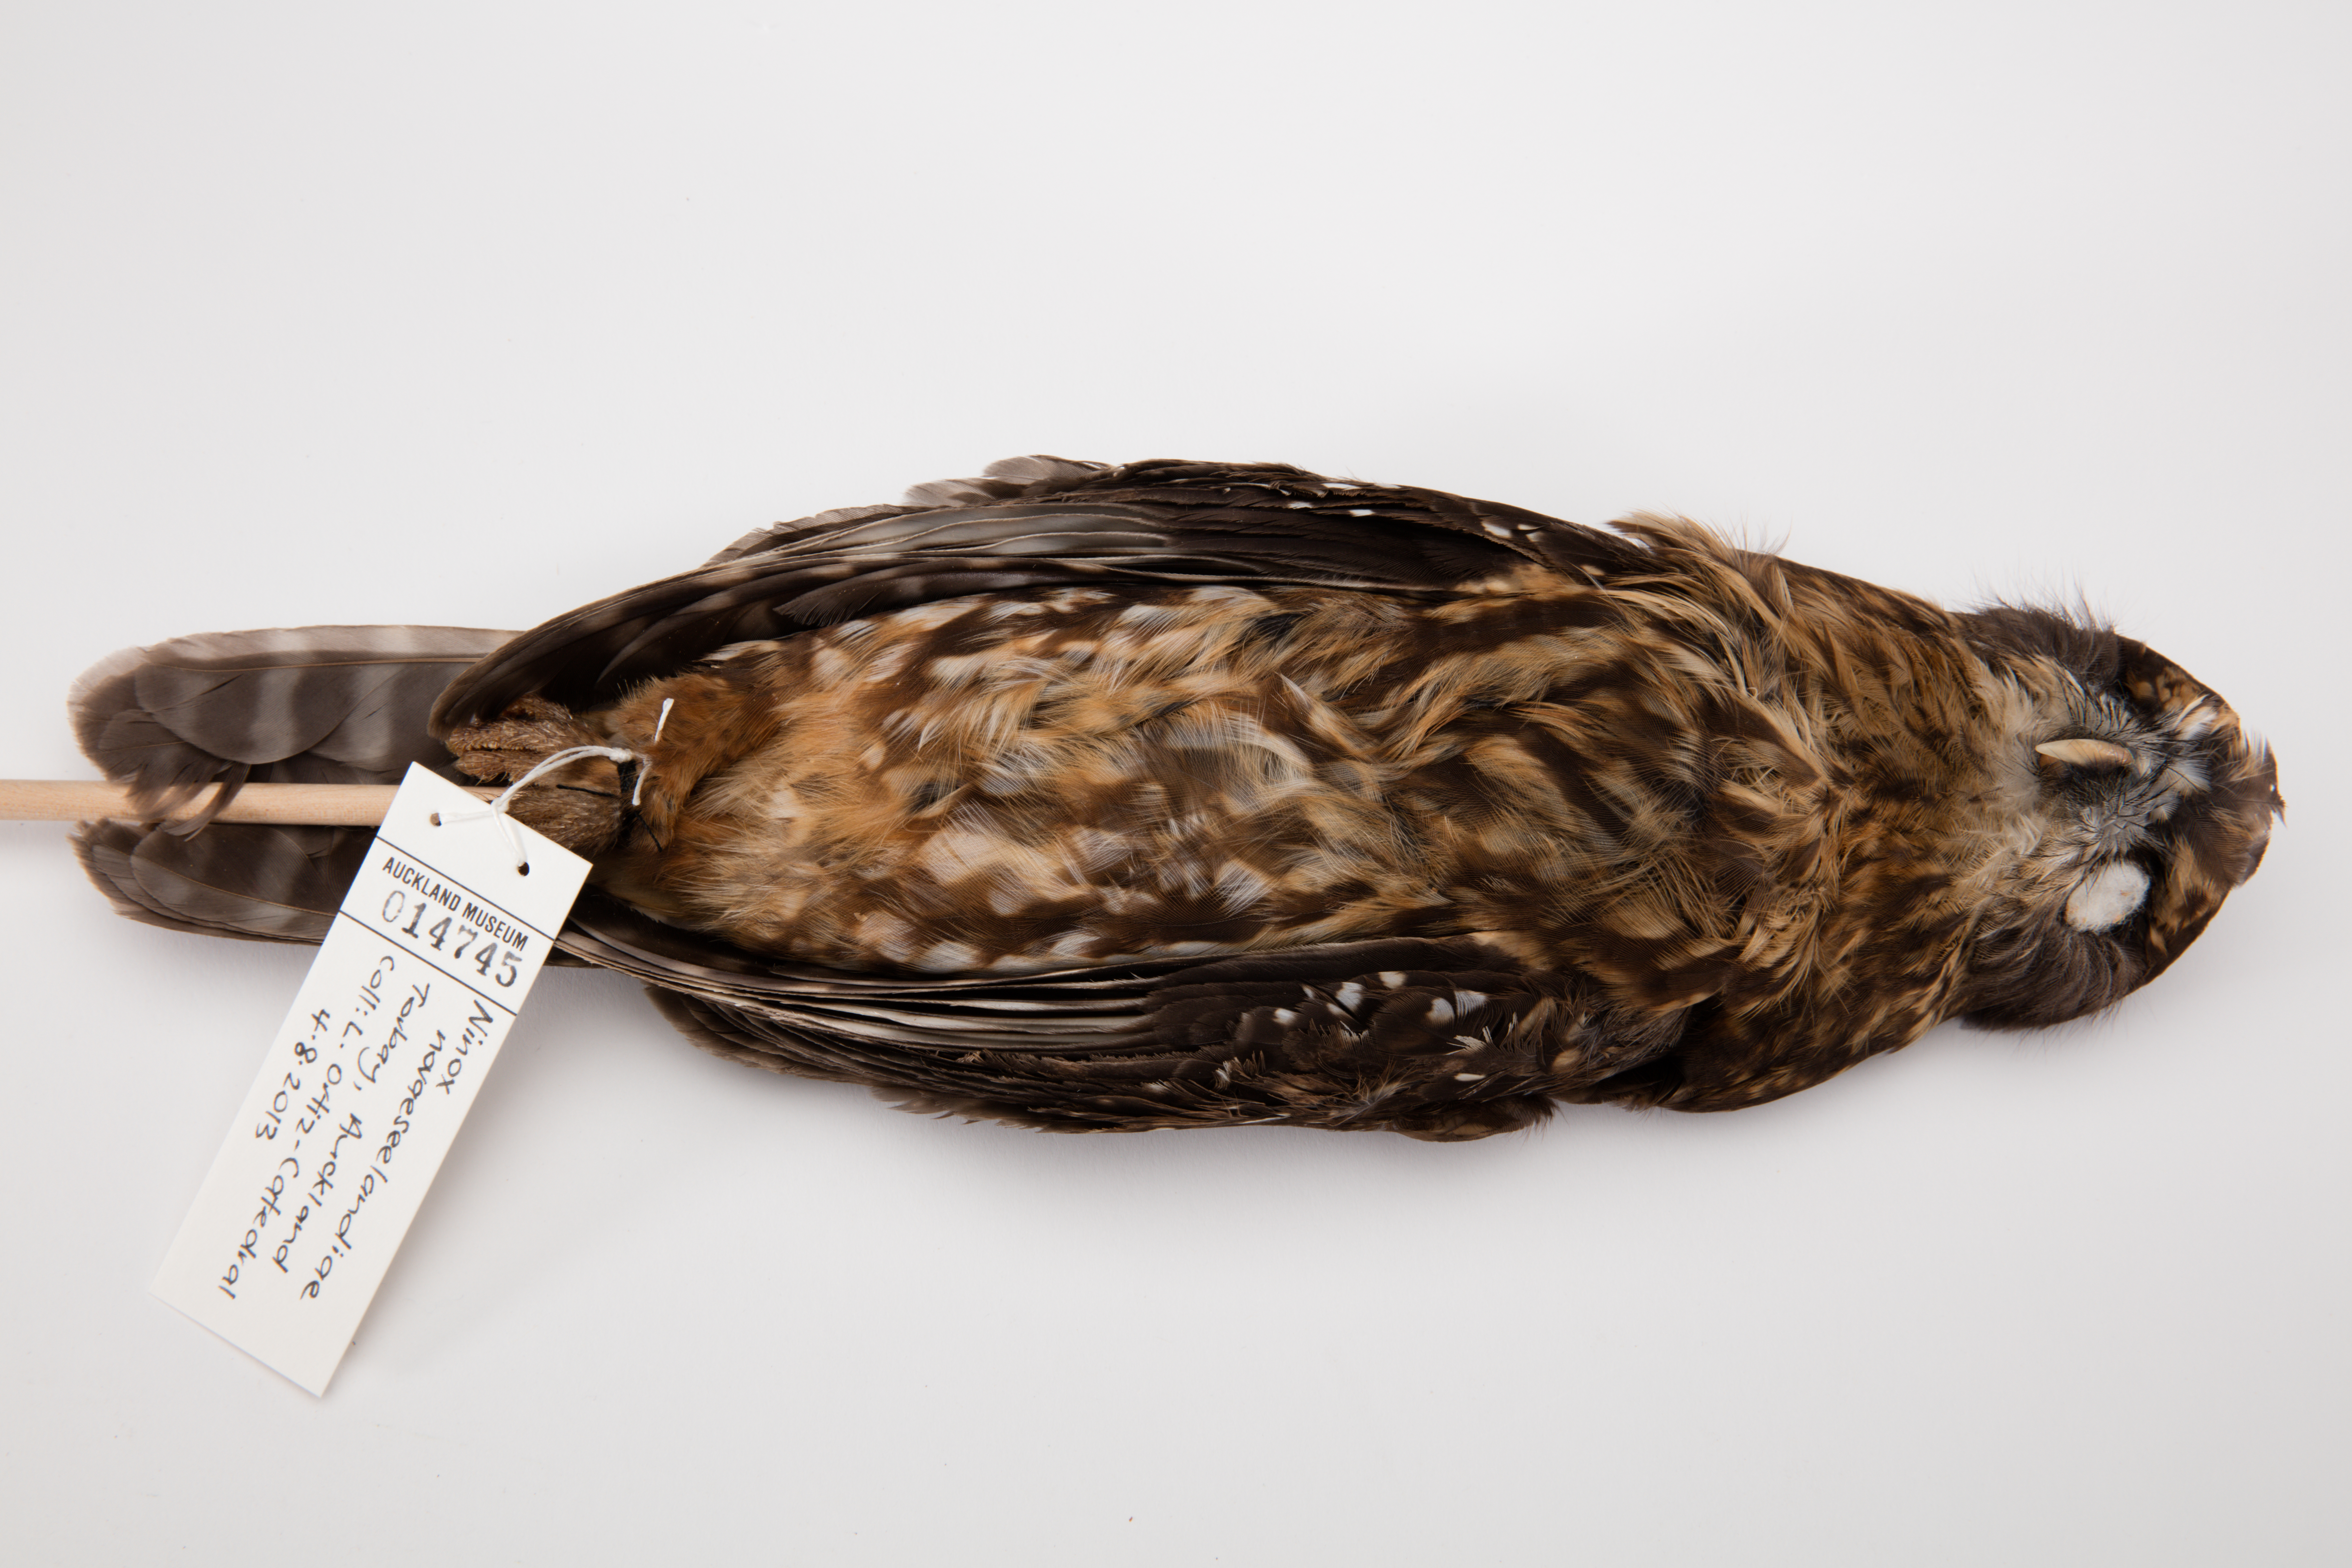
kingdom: Animalia
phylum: Chordata
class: Aves
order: Strigiformes
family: Strigidae
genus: Ninox
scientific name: Ninox novaeseelandiae
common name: Morepork
